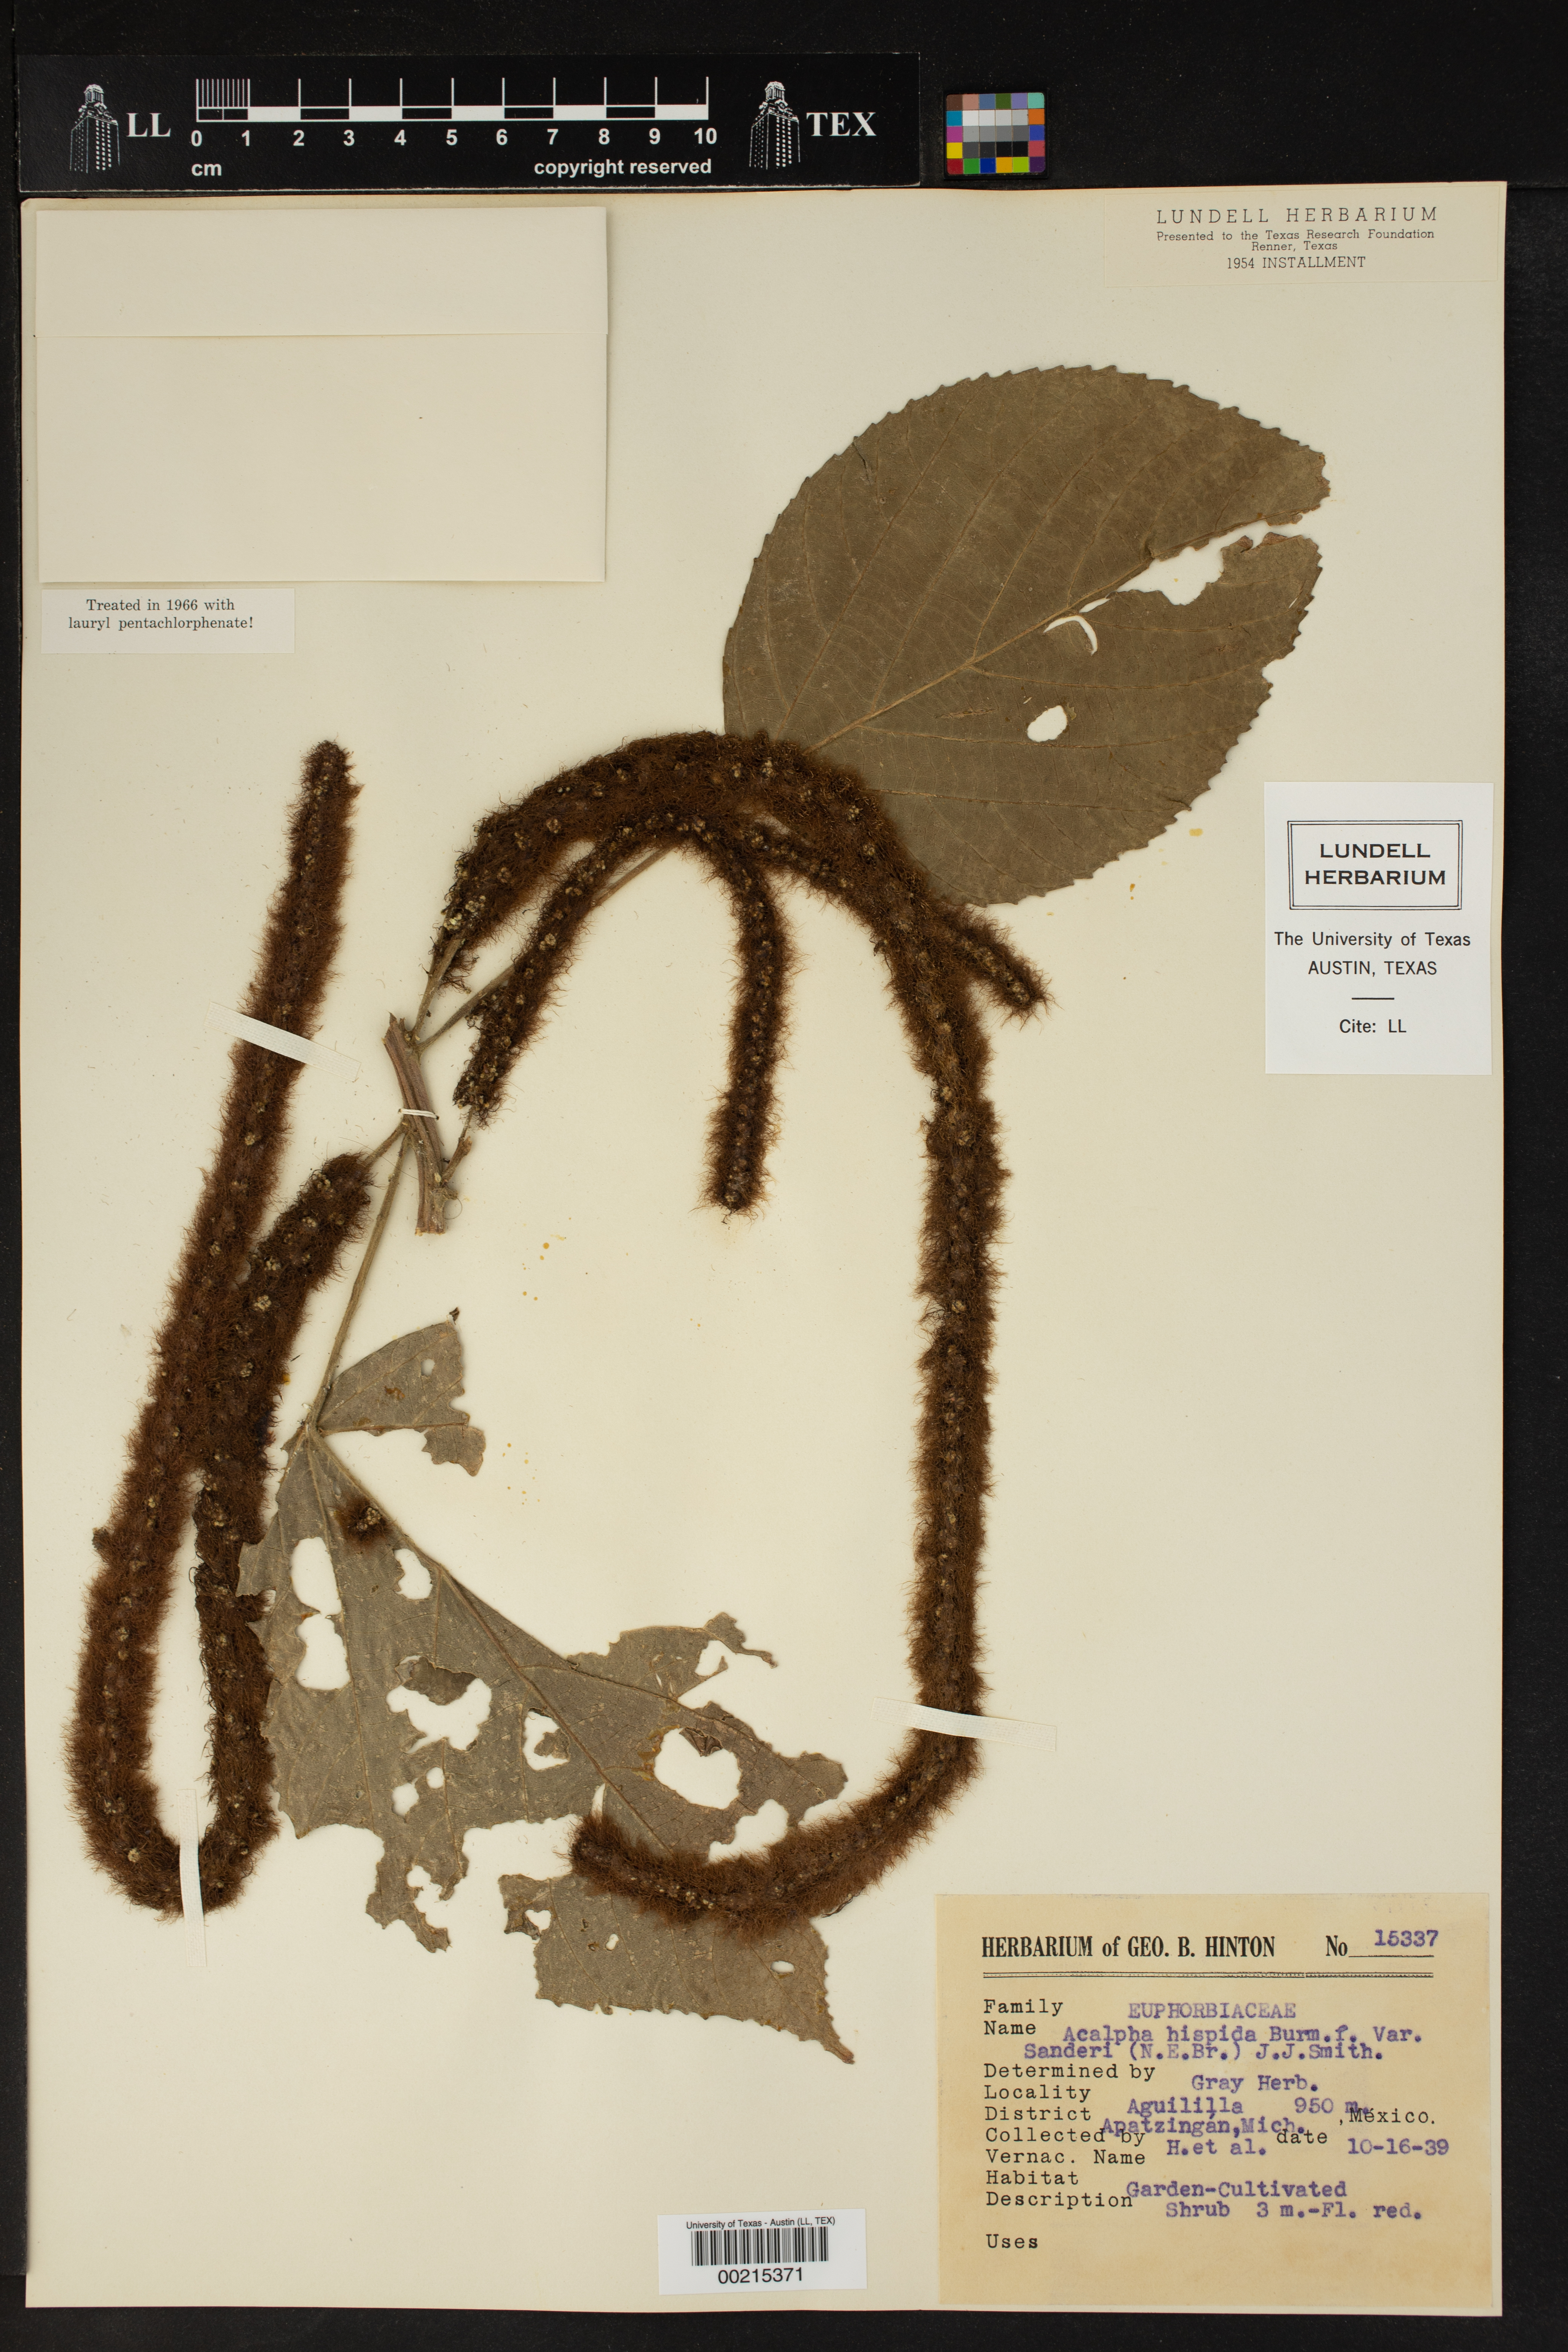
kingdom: Plantae
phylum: Tracheophyta
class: Magnoliopsida
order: Malpighiales
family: Euphorbiaceae
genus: Acalypha
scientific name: Acalypha hispida
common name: Chenilleplant
